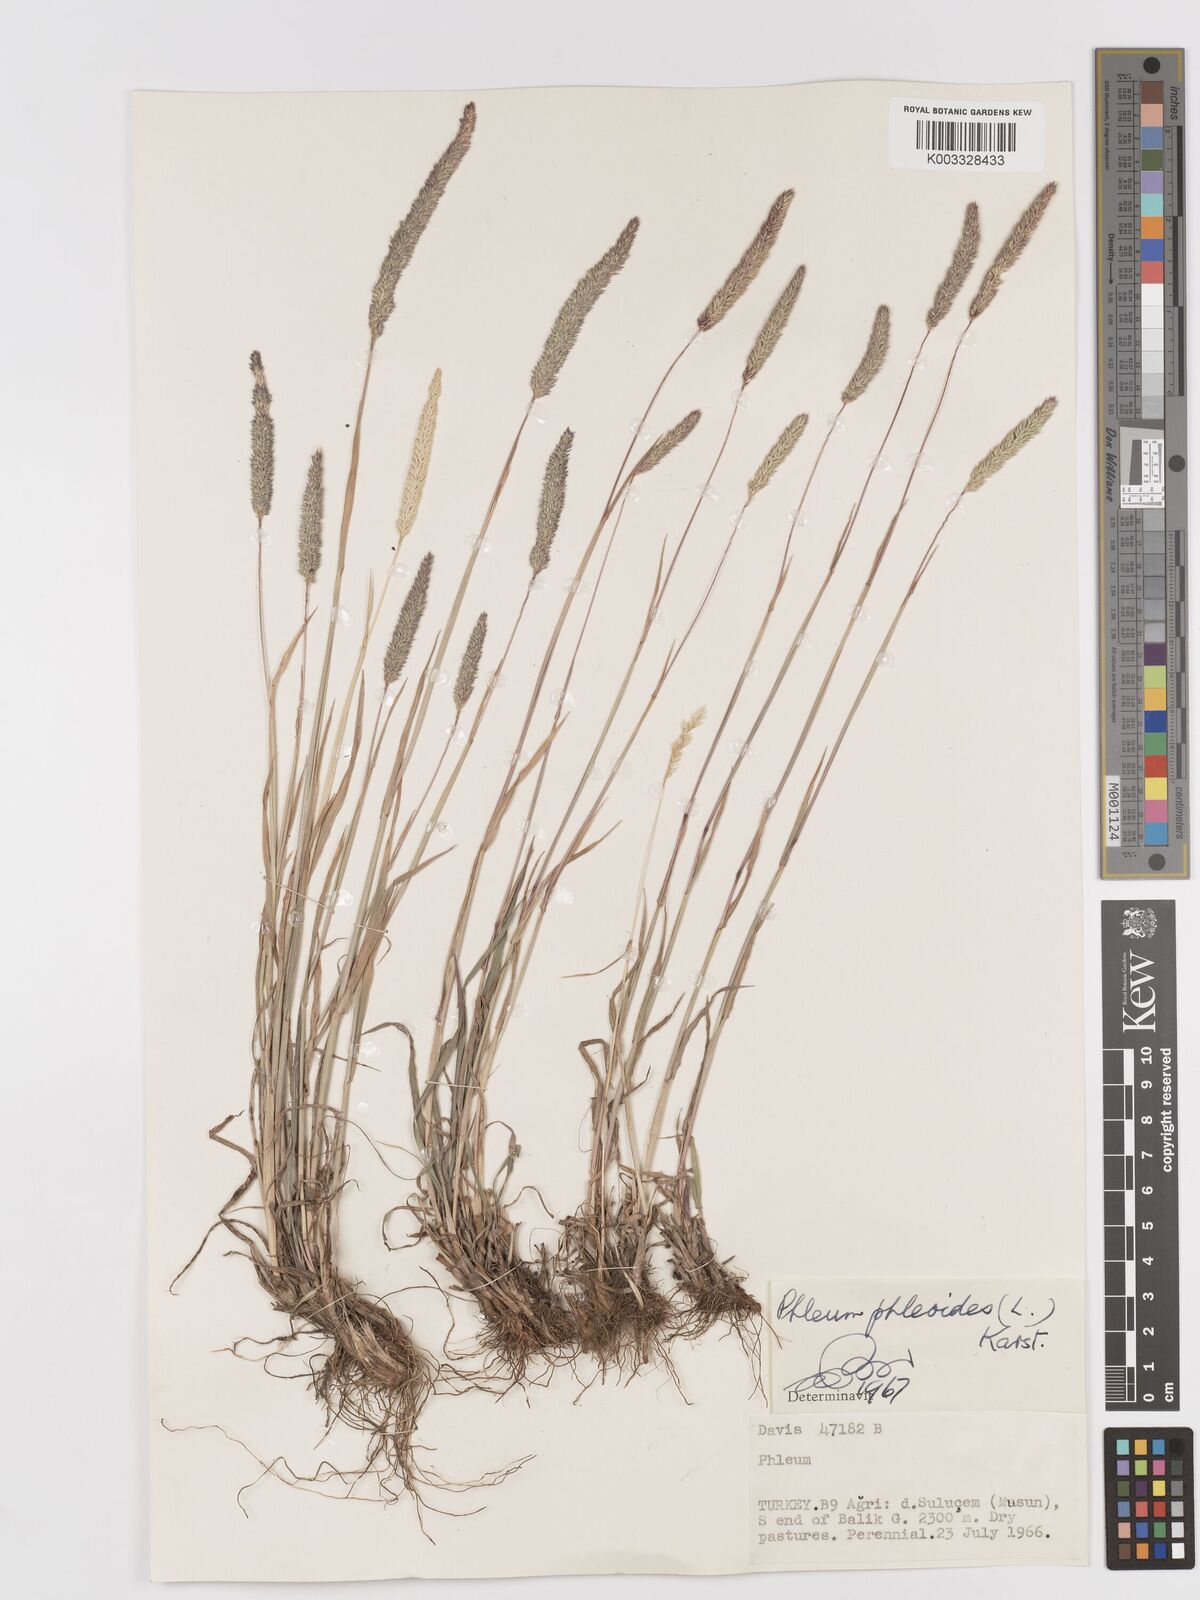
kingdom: Plantae
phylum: Tracheophyta
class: Liliopsida
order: Poales
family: Poaceae
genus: Phleum
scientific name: Phleum phleoides
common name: Purple-stem cat's-tail
